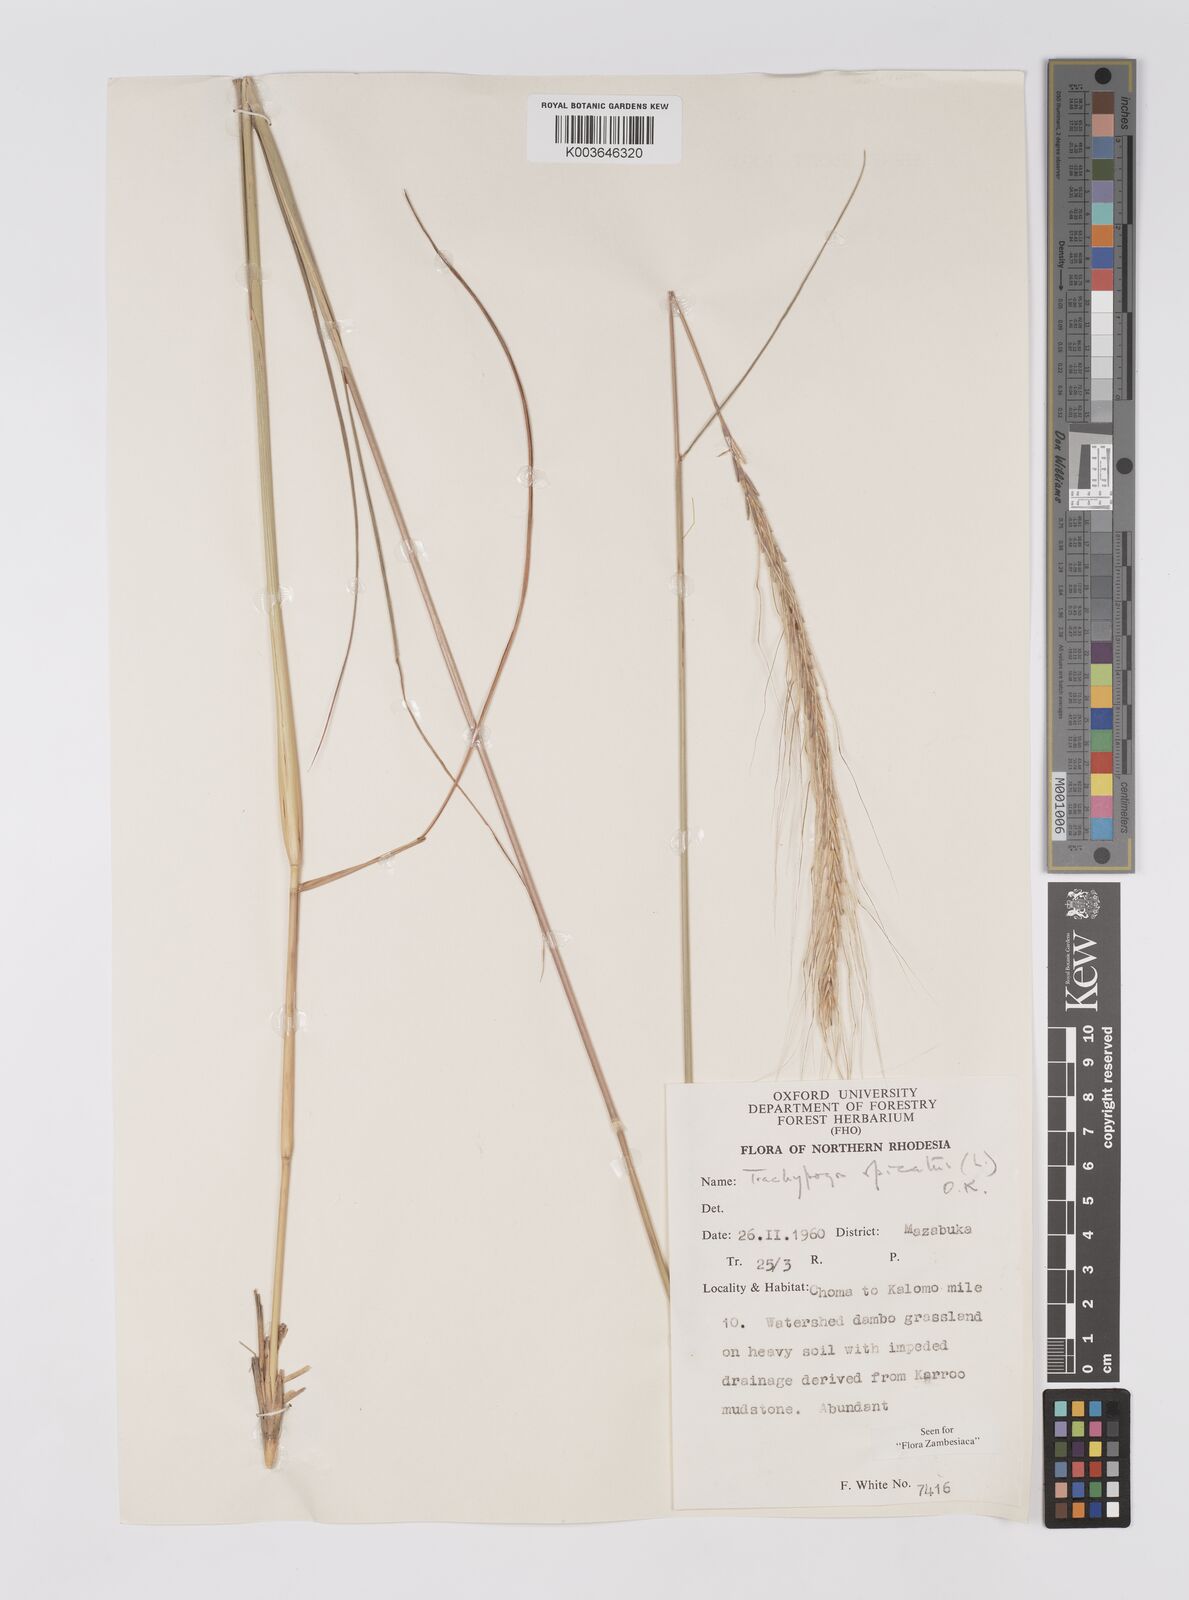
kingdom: Plantae
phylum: Tracheophyta
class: Liliopsida
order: Poales
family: Poaceae
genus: Trachypogon
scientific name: Trachypogon spicatus
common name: Crinkle-awn
